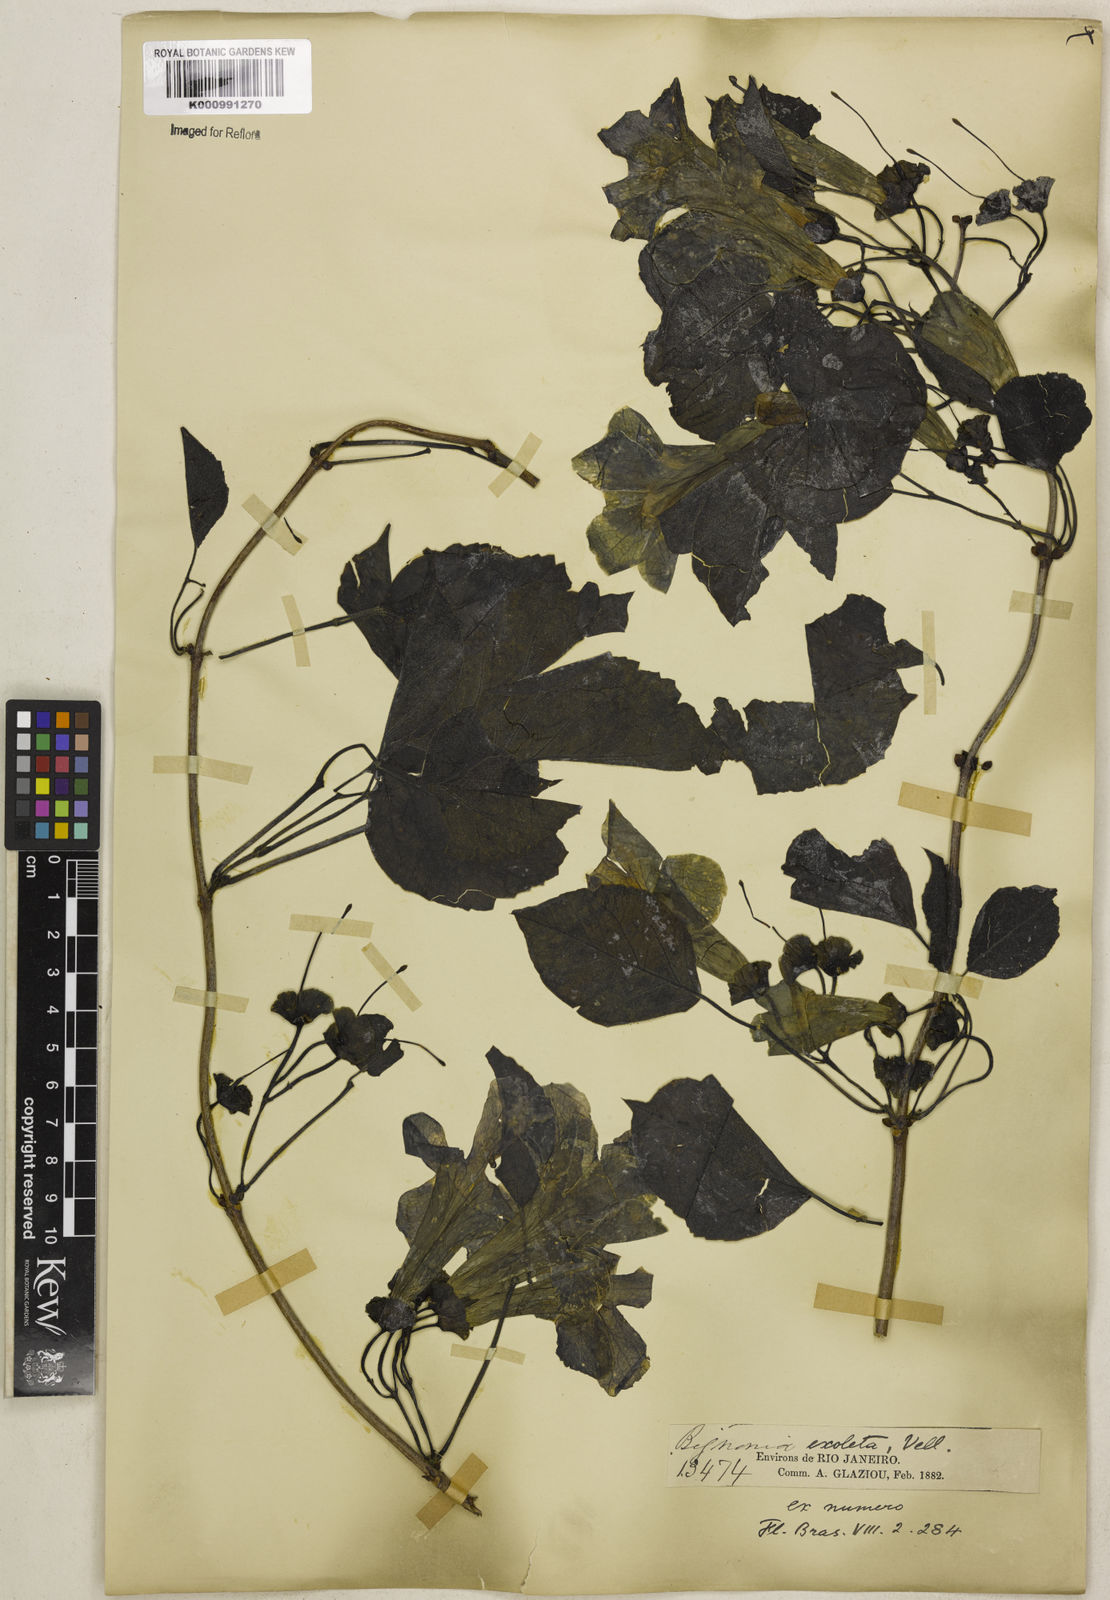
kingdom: Plantae
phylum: Tracheophyta
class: Magnoliopsida
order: Lamiales
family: Bignoniaceae
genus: Dolichandra
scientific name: Dolichandra unguis-cati
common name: Catclaw vine
